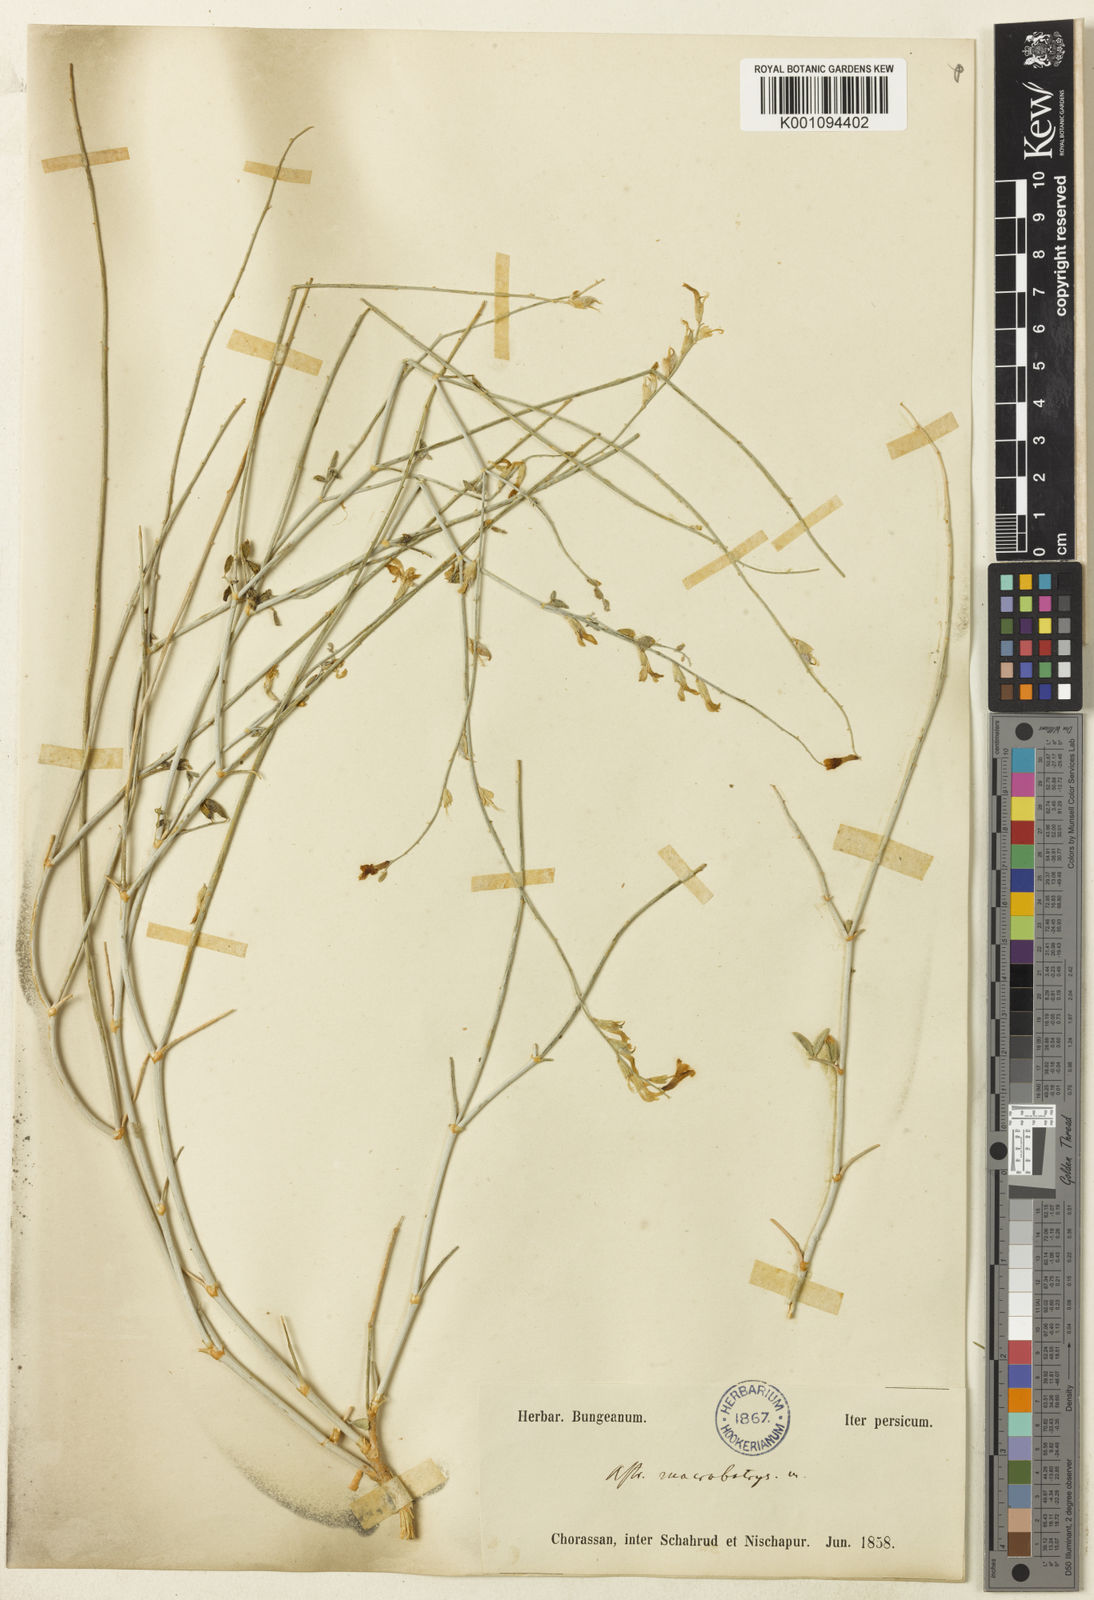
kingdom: Plantae
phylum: Tracheophyta
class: Magnoliopsida
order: Fabales
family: Fabaceae
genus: Astragalus
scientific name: Astragalus
